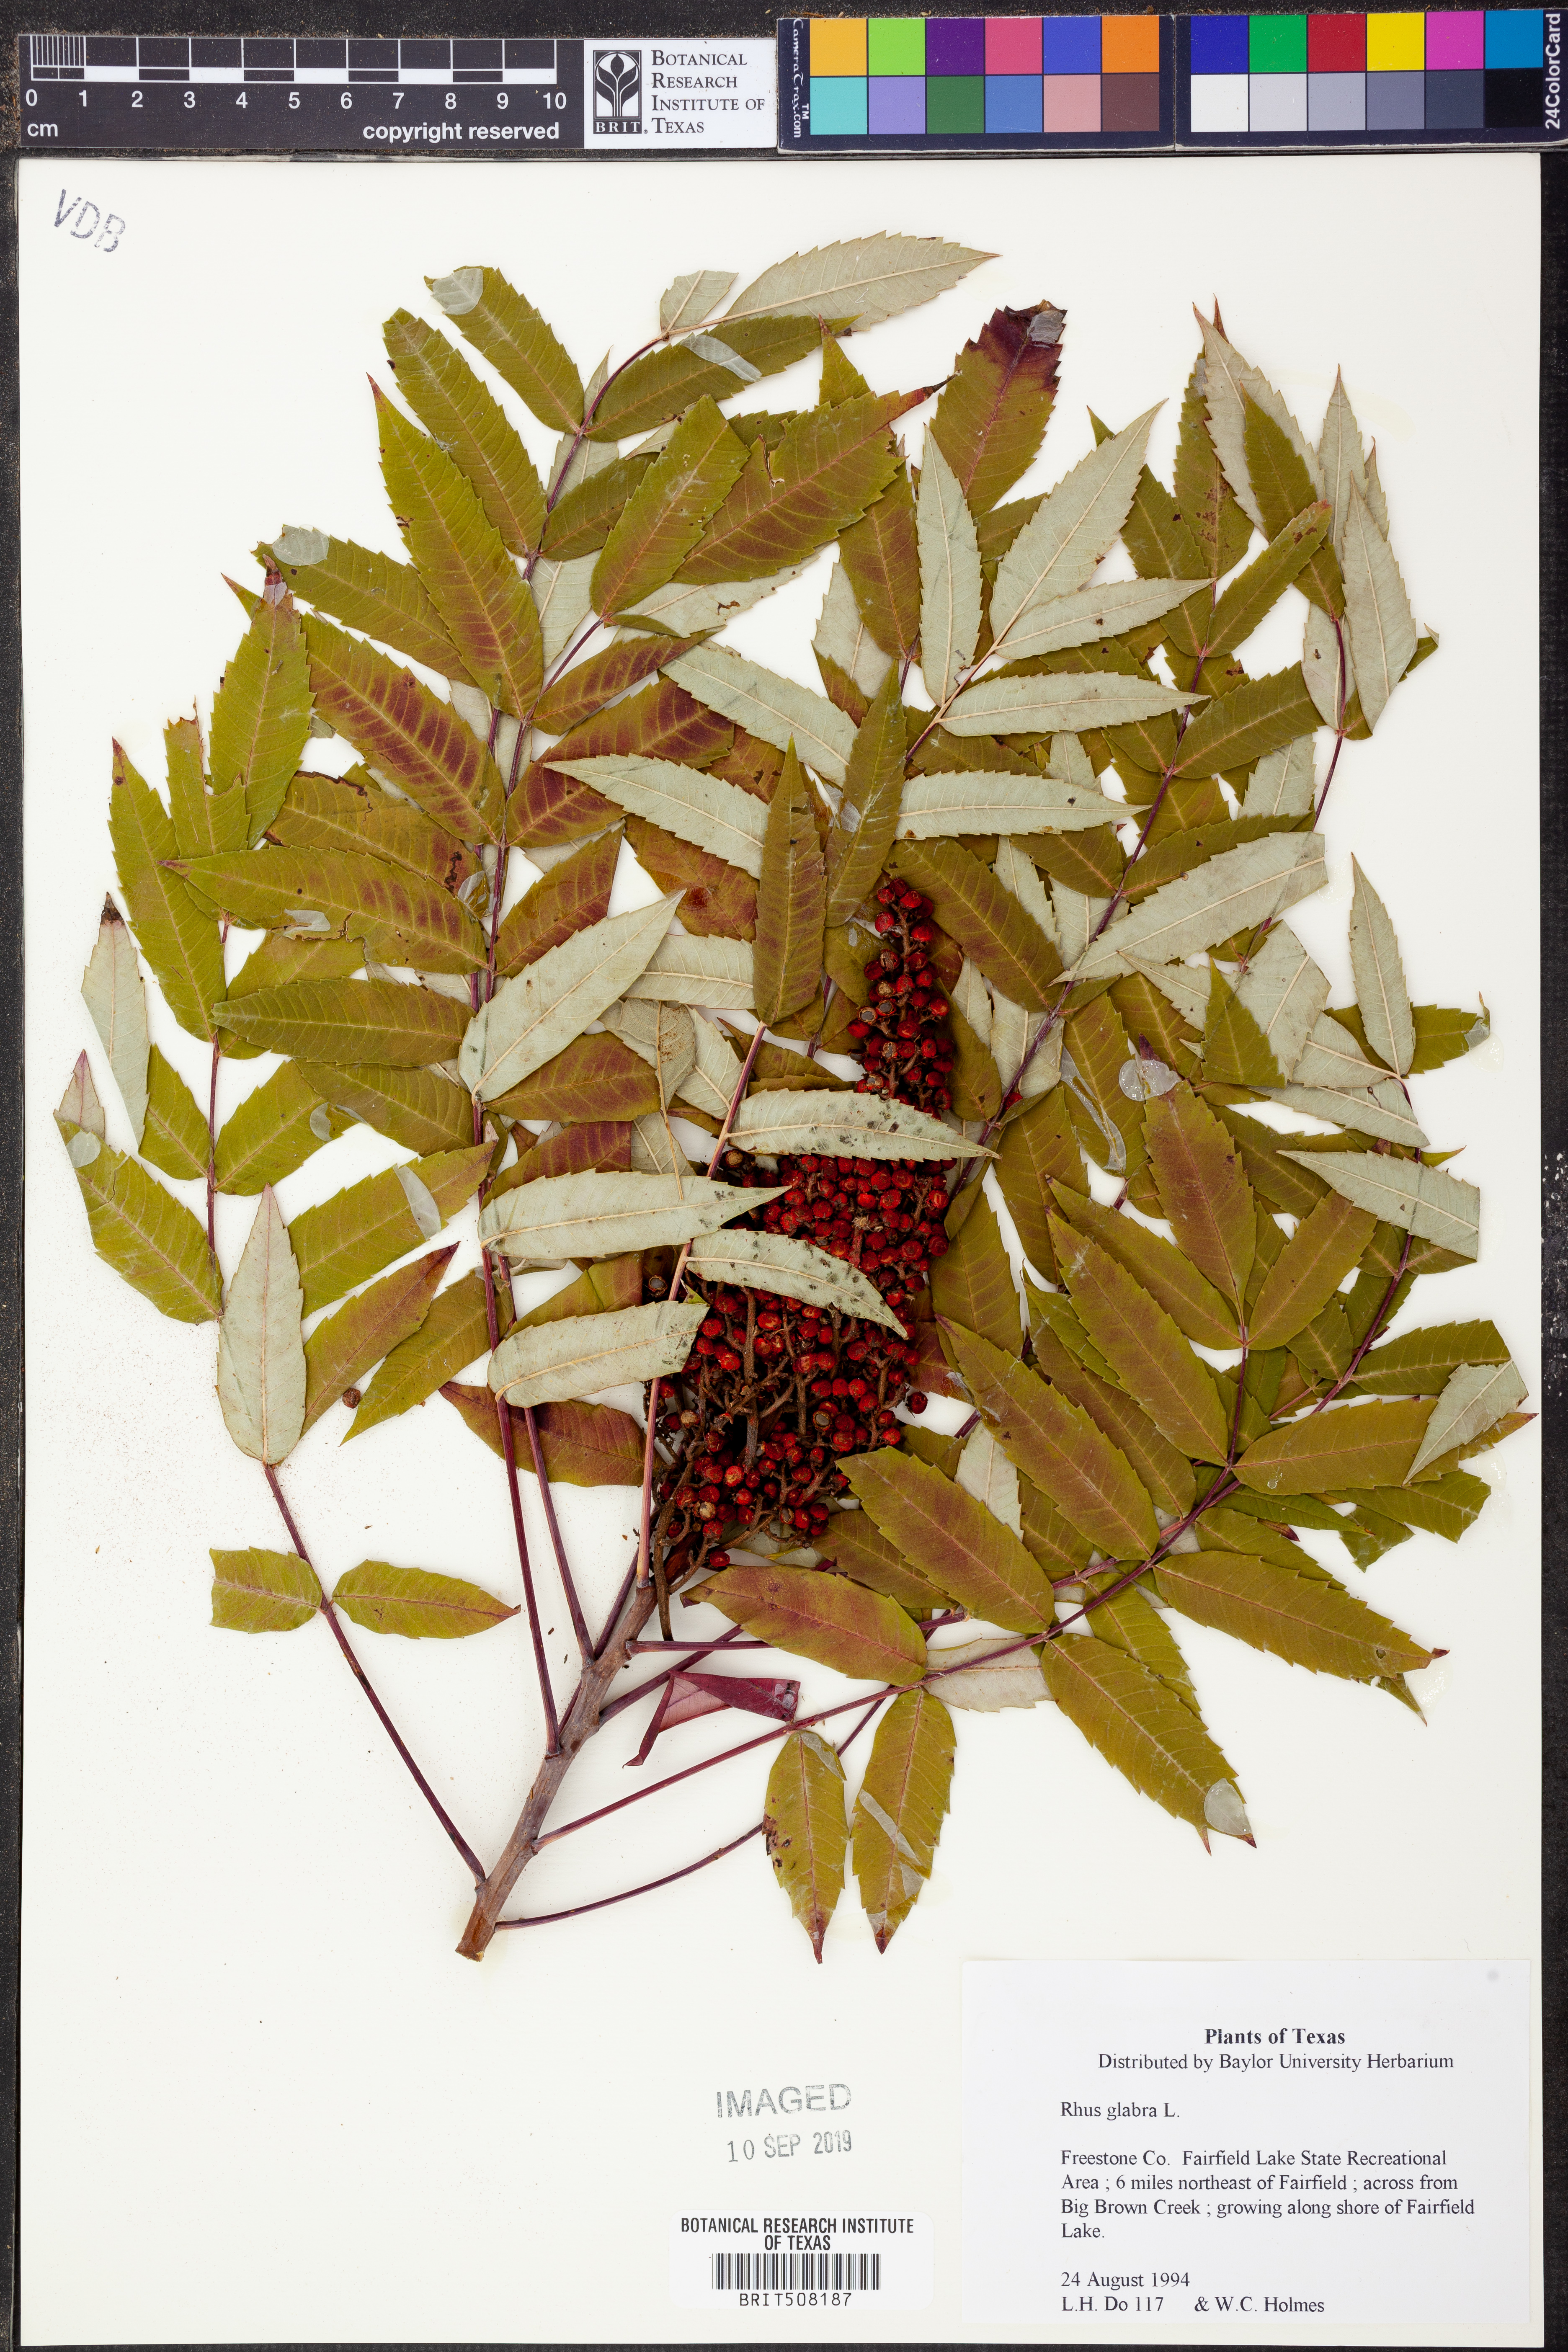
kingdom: Plantae
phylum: Tracheophyta
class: Magnoliopsida
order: Sapindales
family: Anacardiaceae
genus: Rhus
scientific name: Rhus glabra
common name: Scarlet sumac
